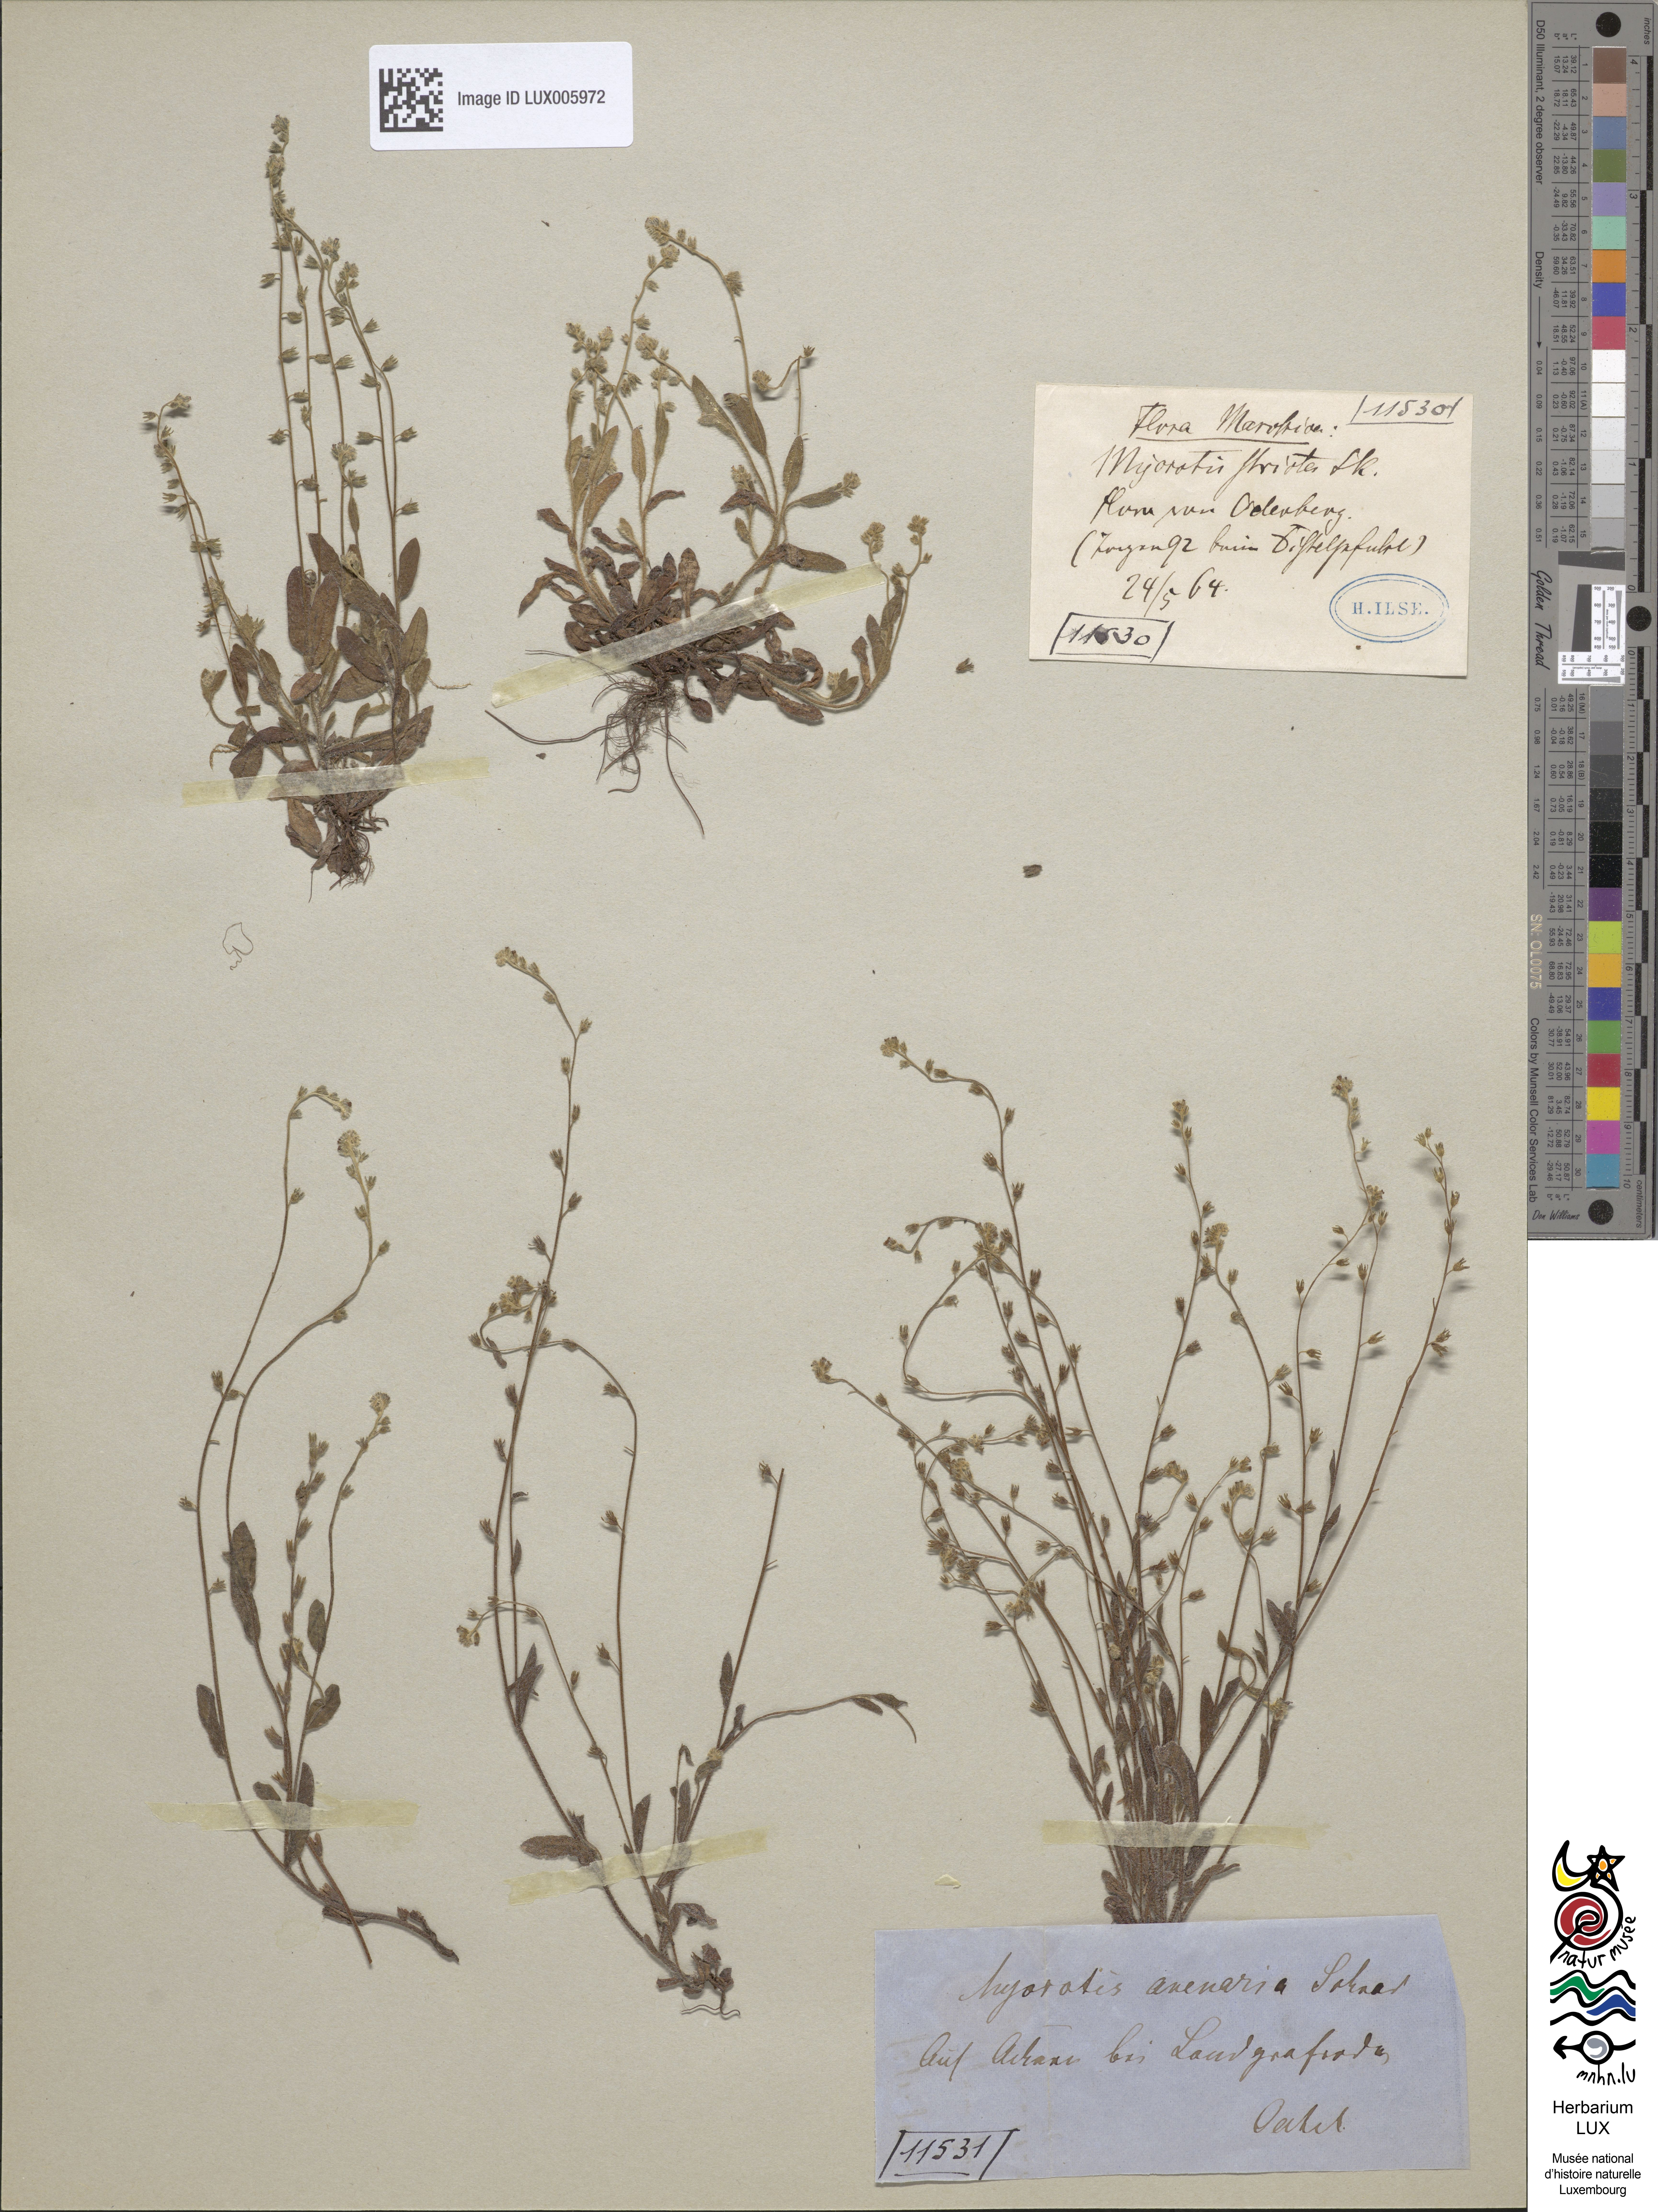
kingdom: Plantae
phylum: Tracheophyta
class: Magnoliopsida
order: Boraginales
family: Boraginaceae
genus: Myosotis
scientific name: Myosotis stricta
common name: Strict forget-me-not
